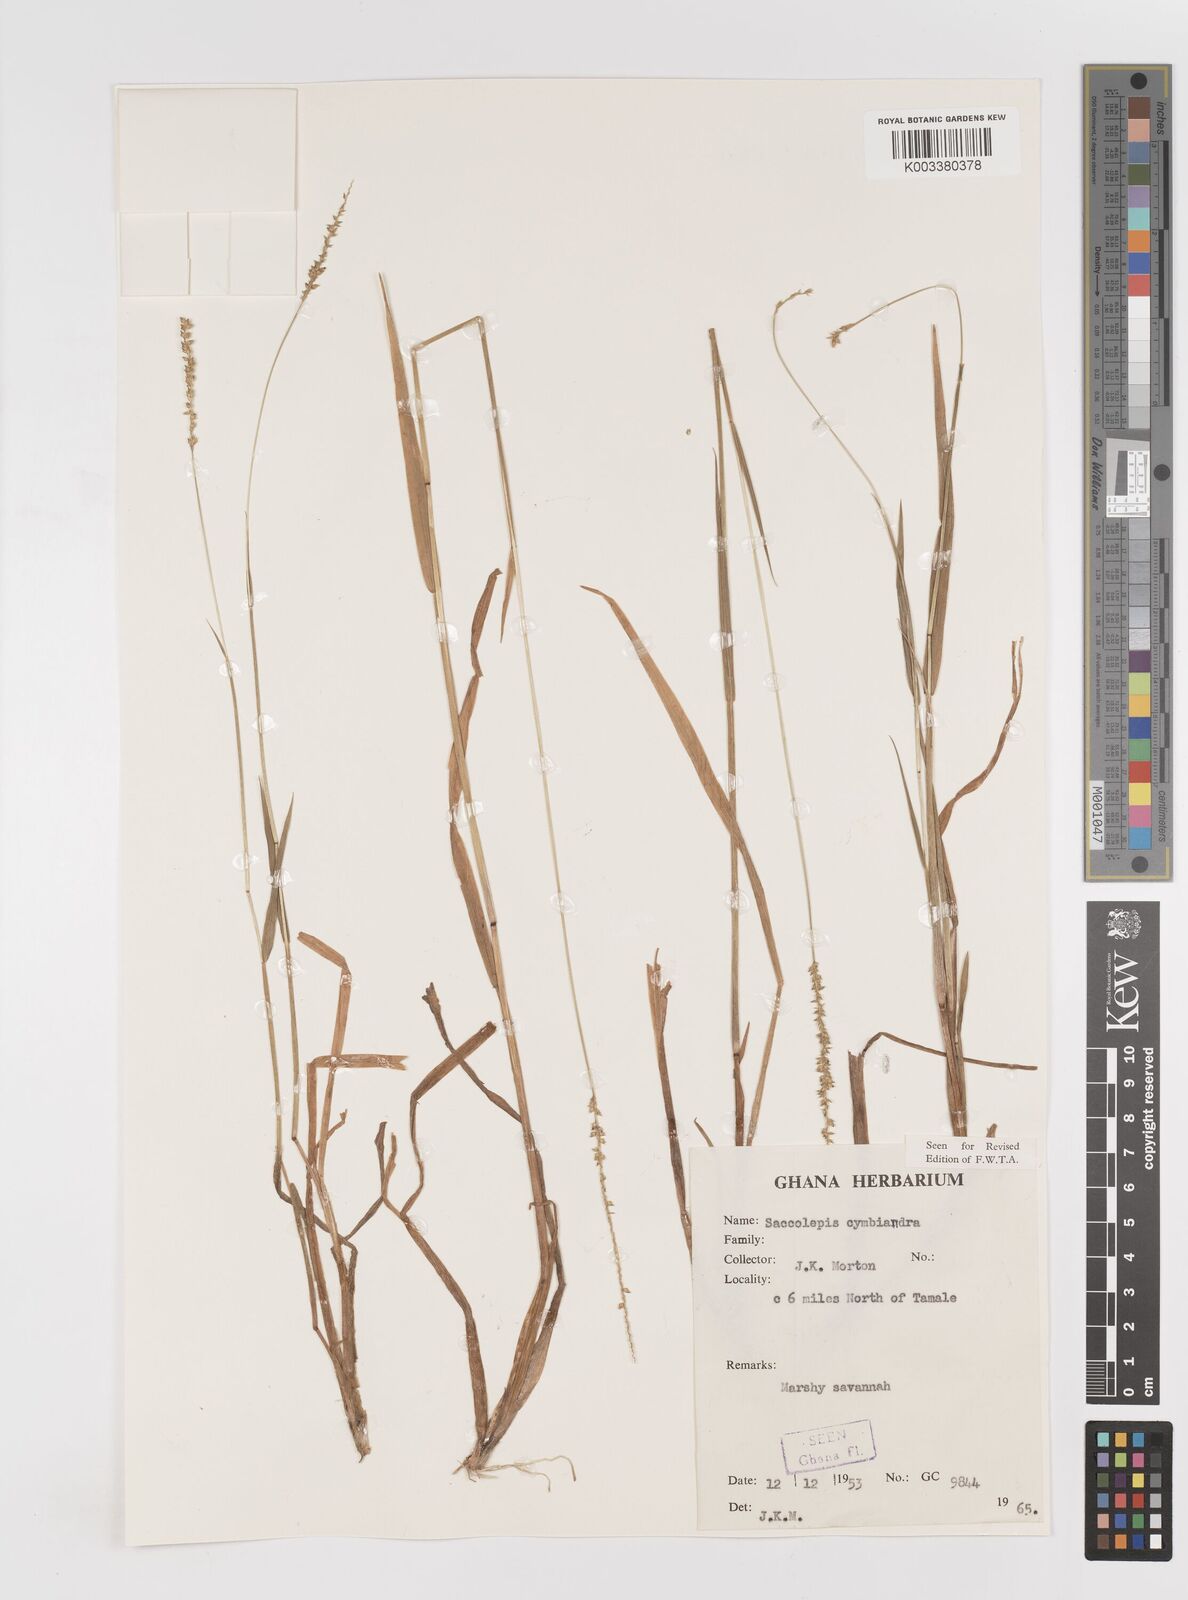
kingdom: Plantae
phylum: Tracheophyta
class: Liliopsida
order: Poales
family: Poaceae
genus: Sacciolepis
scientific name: Sacciolepis cymbiandra
